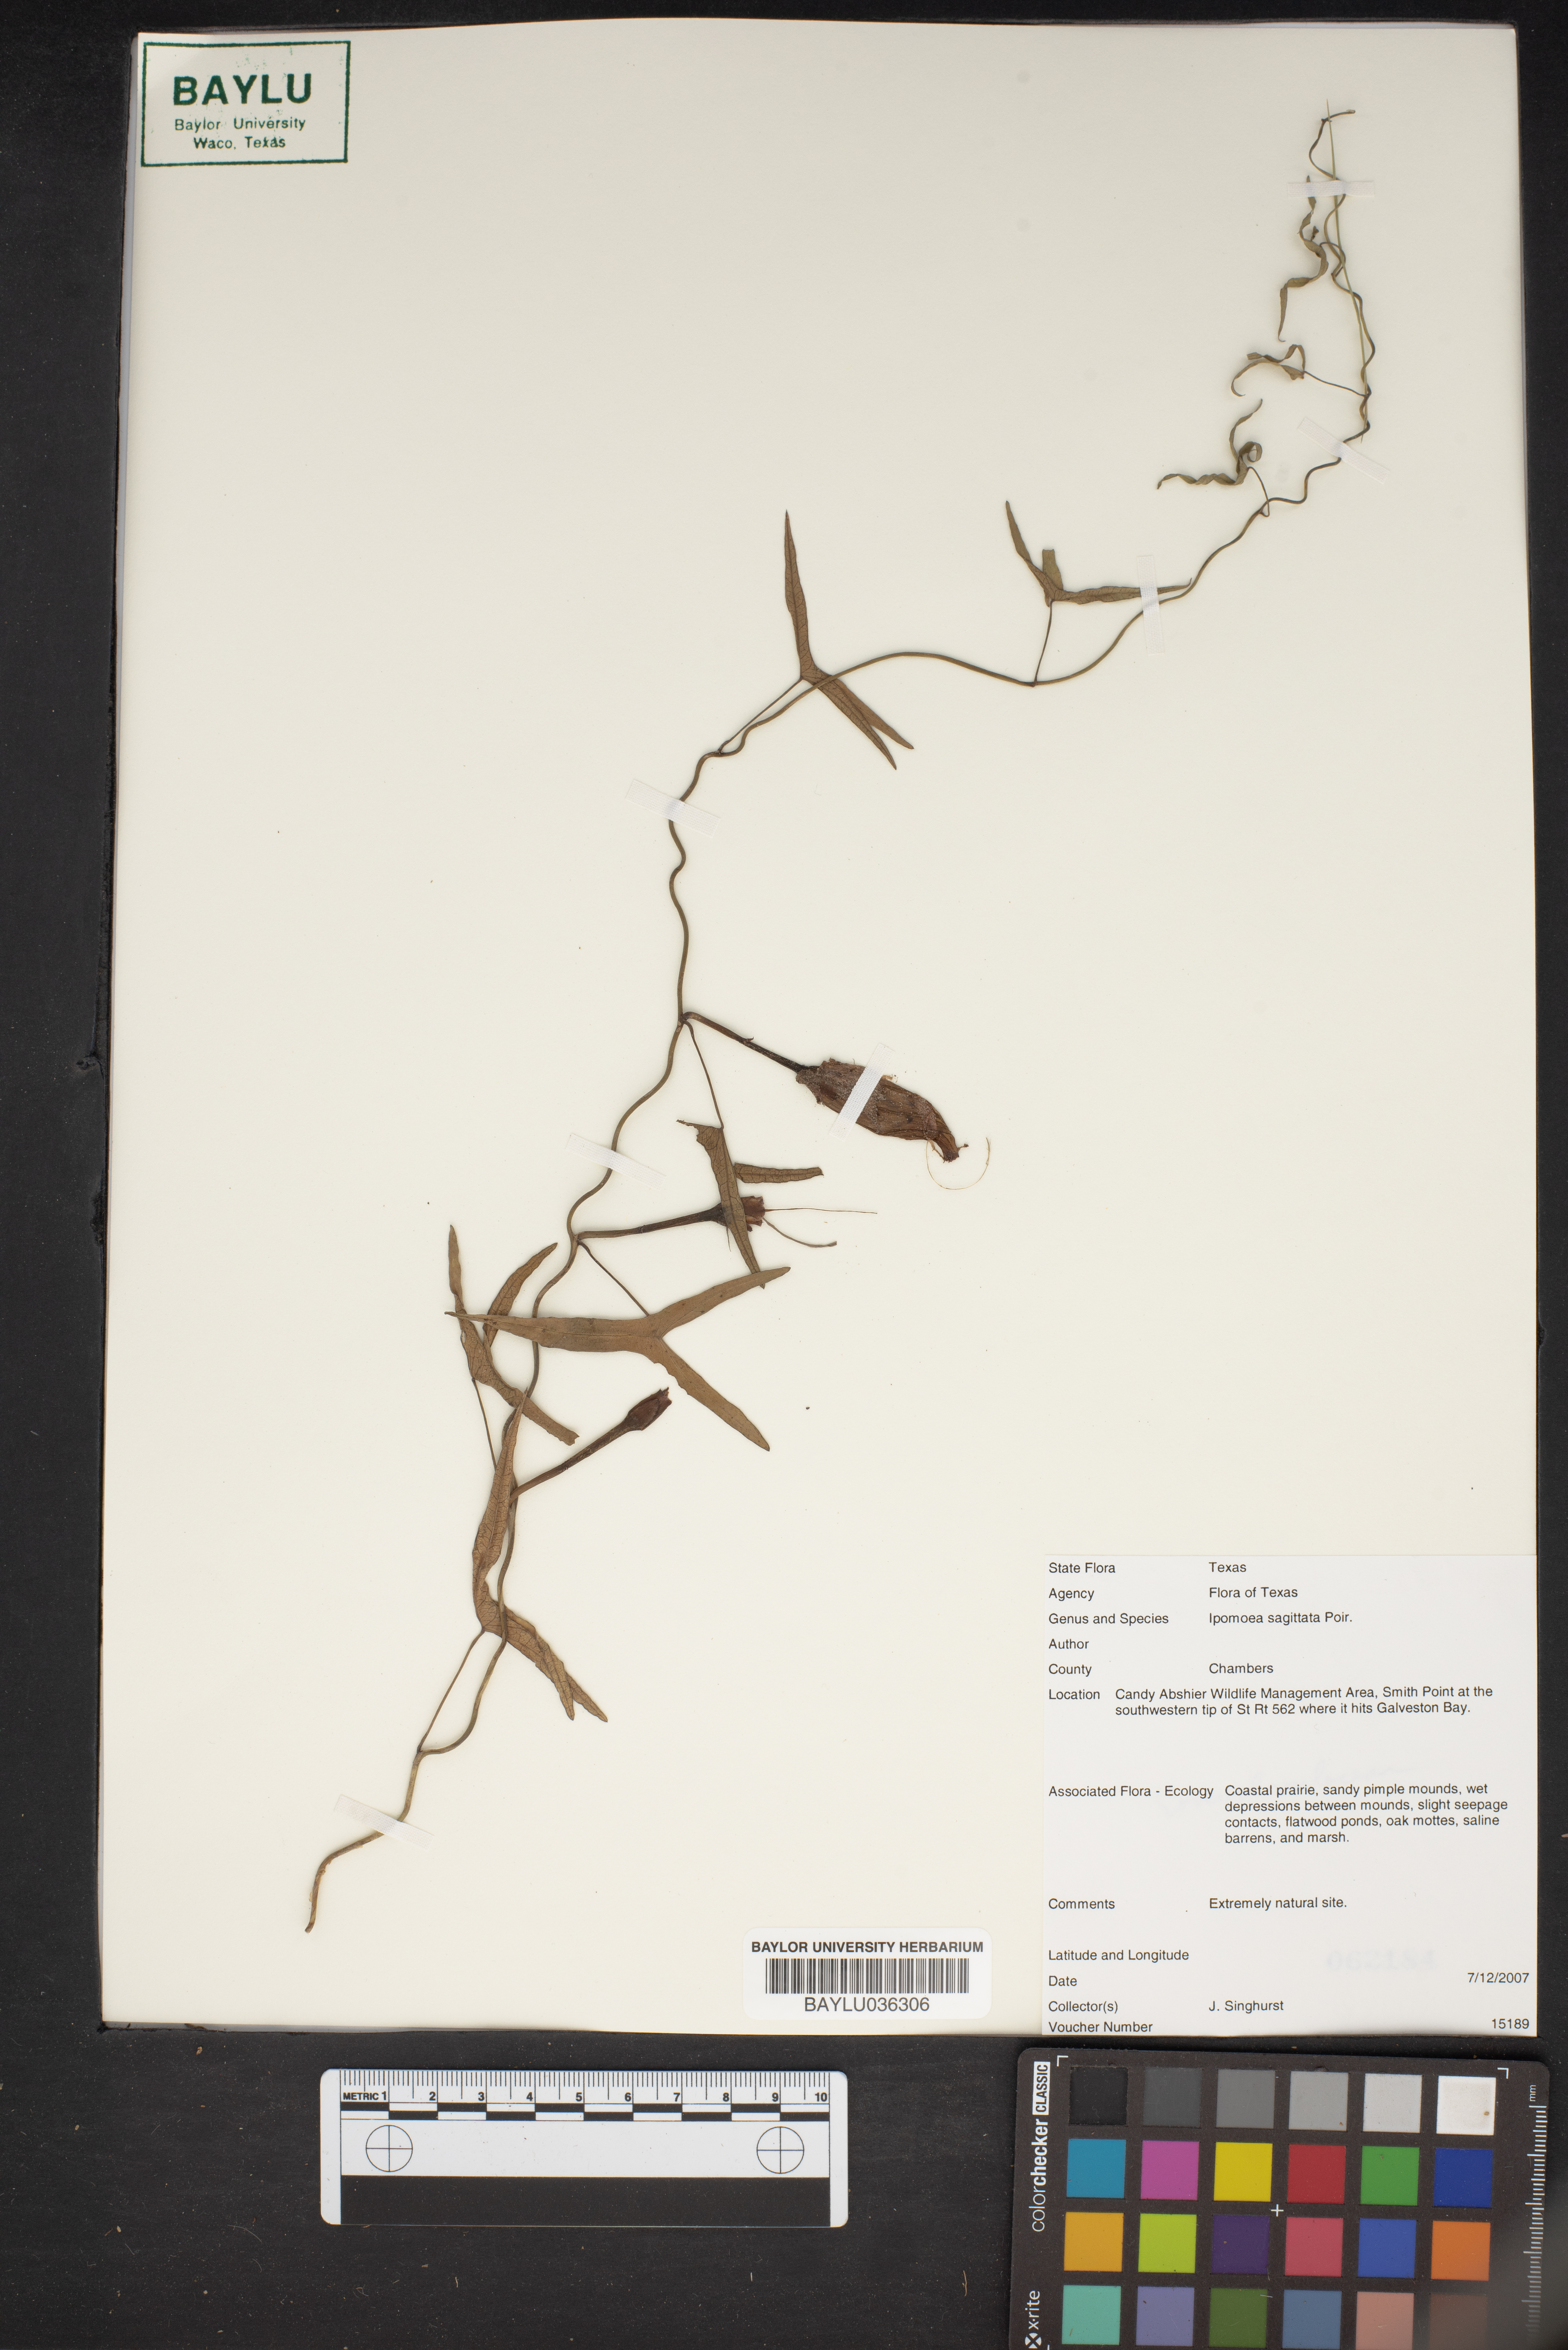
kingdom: Plantae
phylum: Tracheophyta
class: Magnoliopsida
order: Solanales
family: Convolvulaceae
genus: Ipomoea
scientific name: Ipomoea sinensis
